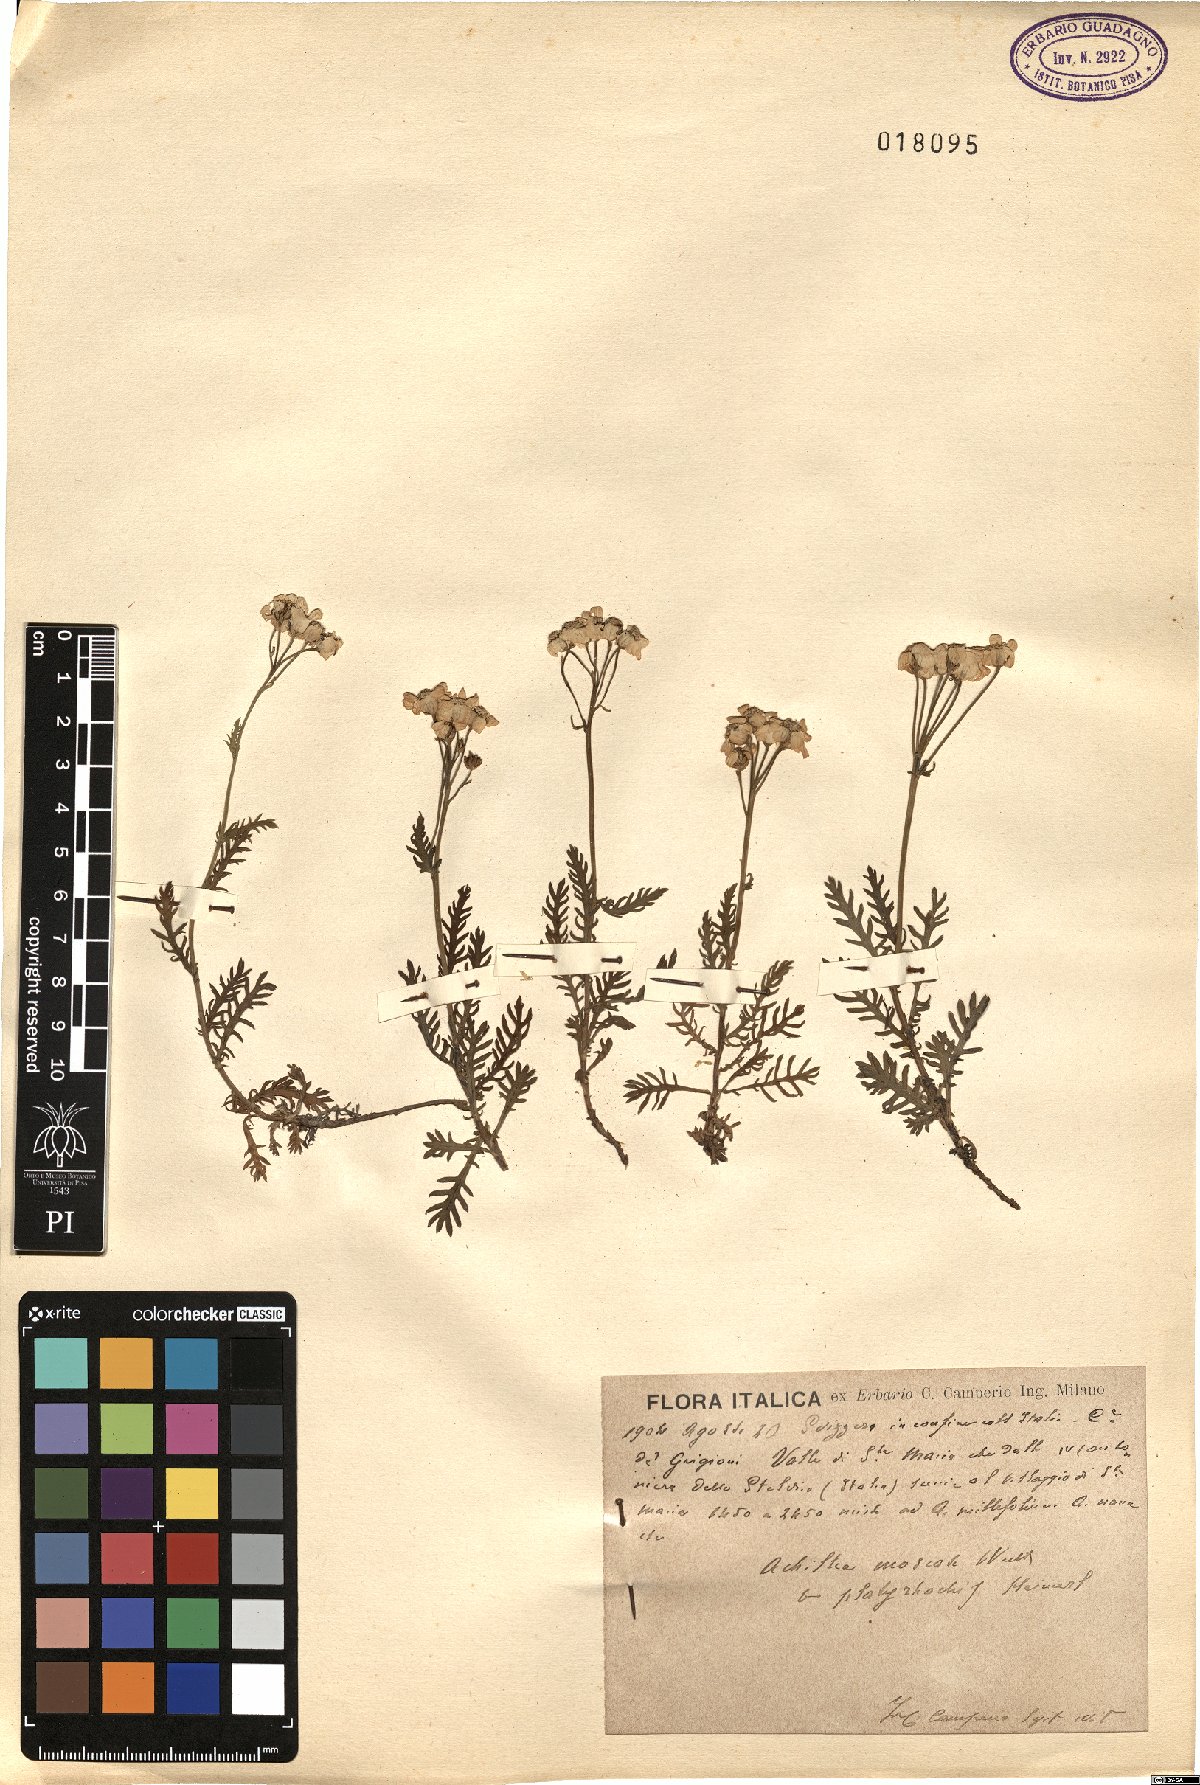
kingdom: Plantae
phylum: Tracheophyta
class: Magnoliopsida
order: Asterales
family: Asteraceae
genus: Achillea
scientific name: Achillea erba-rotta
